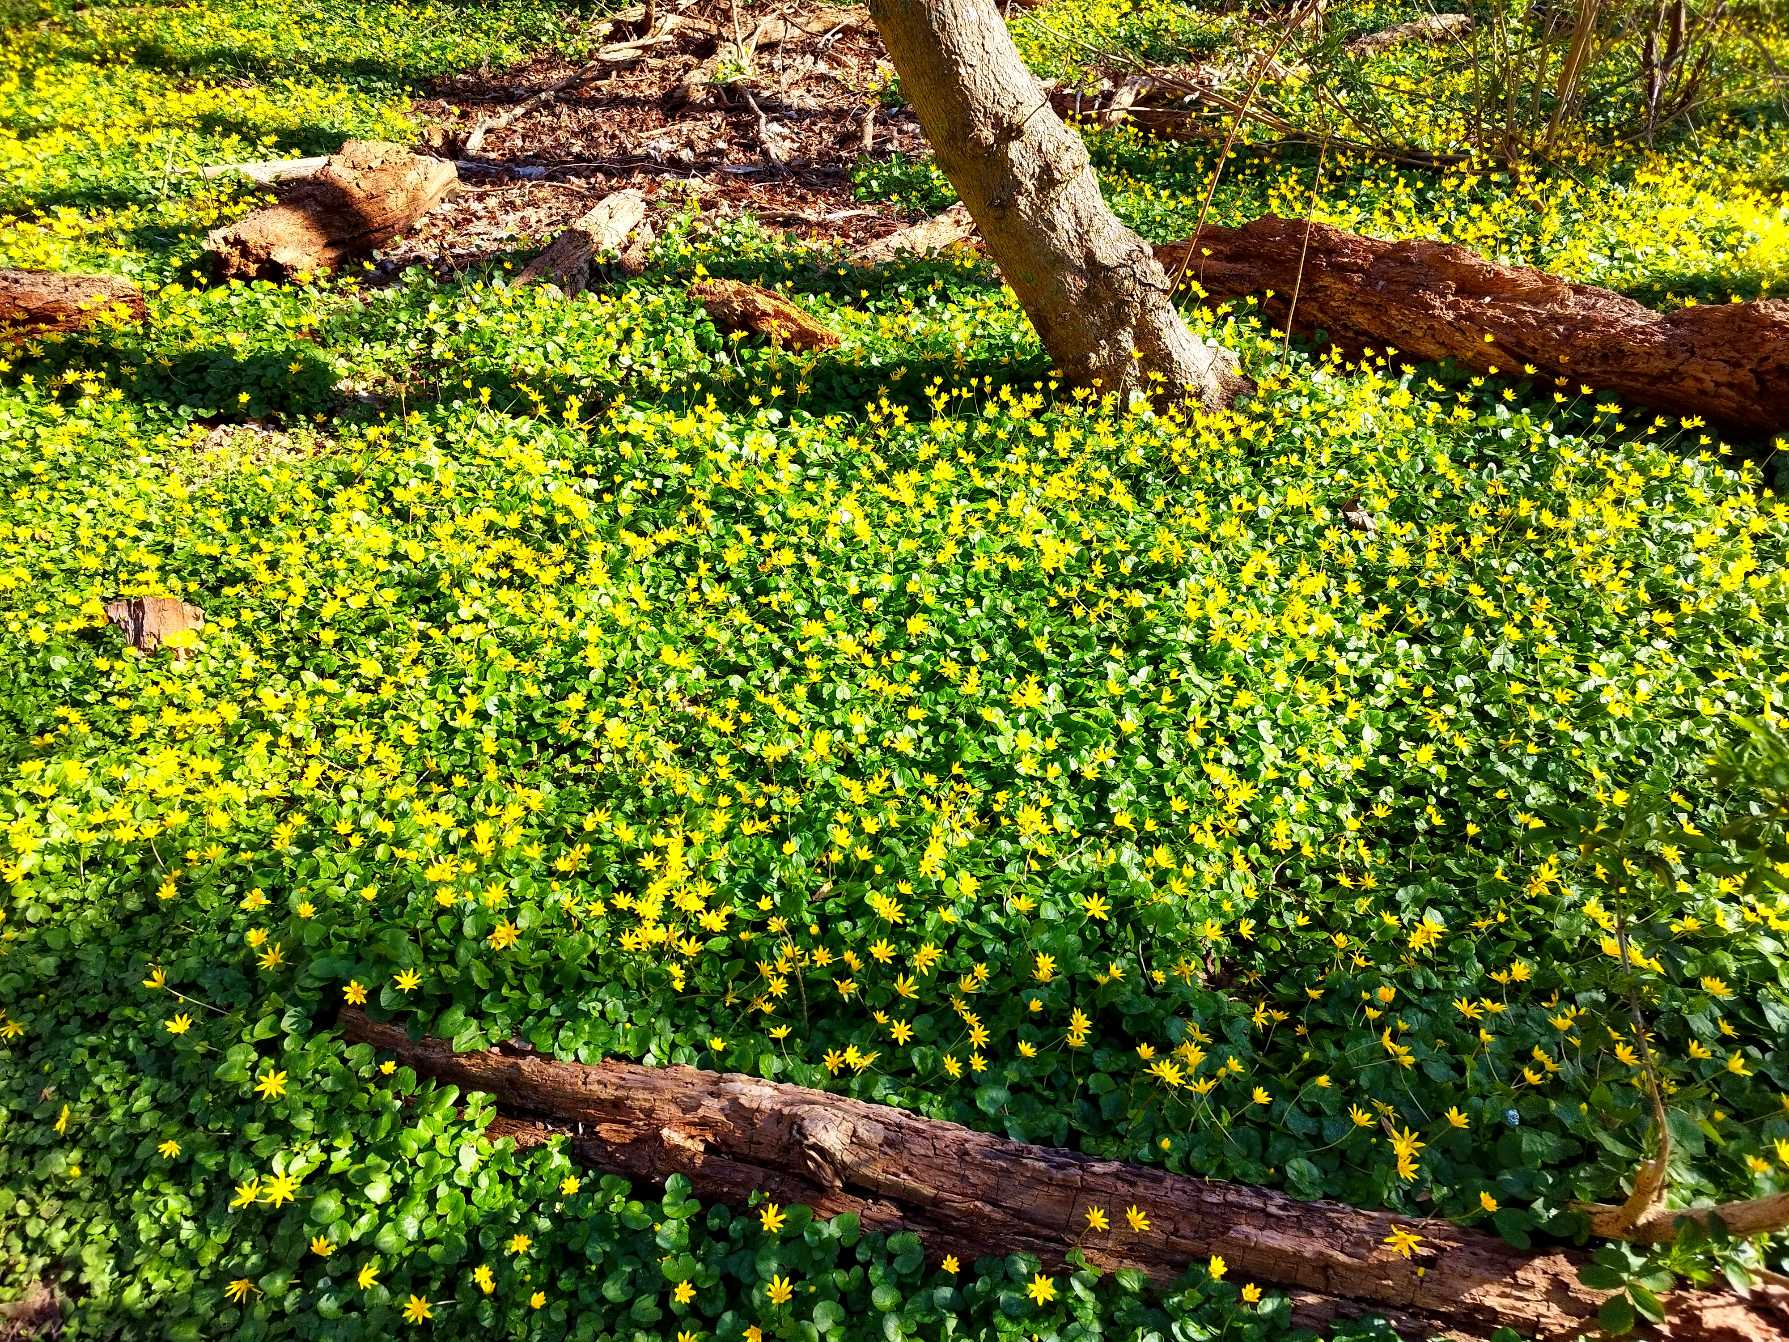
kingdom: Plantae
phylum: Tracheophyta
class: Magnoliopsida
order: Ranunculales
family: Ranunculaceae
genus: Ficaria
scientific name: Ficaria verna
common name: Vorterod
